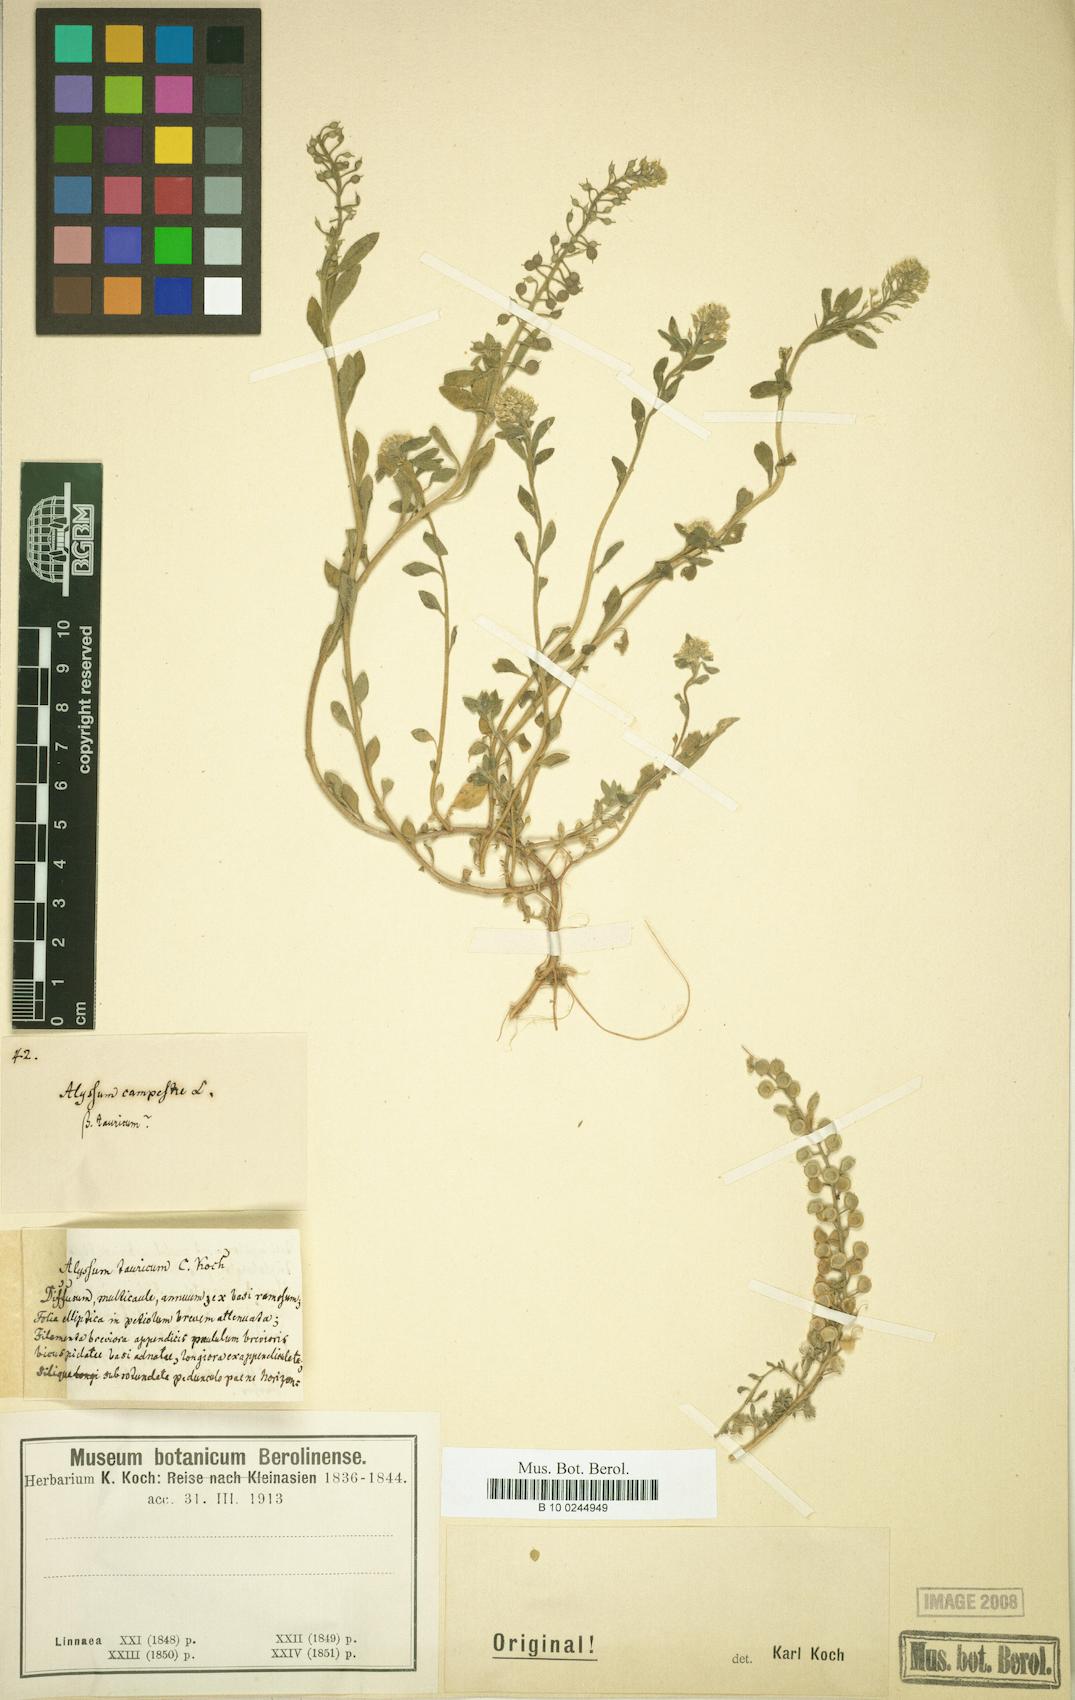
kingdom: Plantae
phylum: Tracheophyta
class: Magnoliopsida
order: Brassicales
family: Brassicaceae
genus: Alyssum
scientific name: Alyssum
